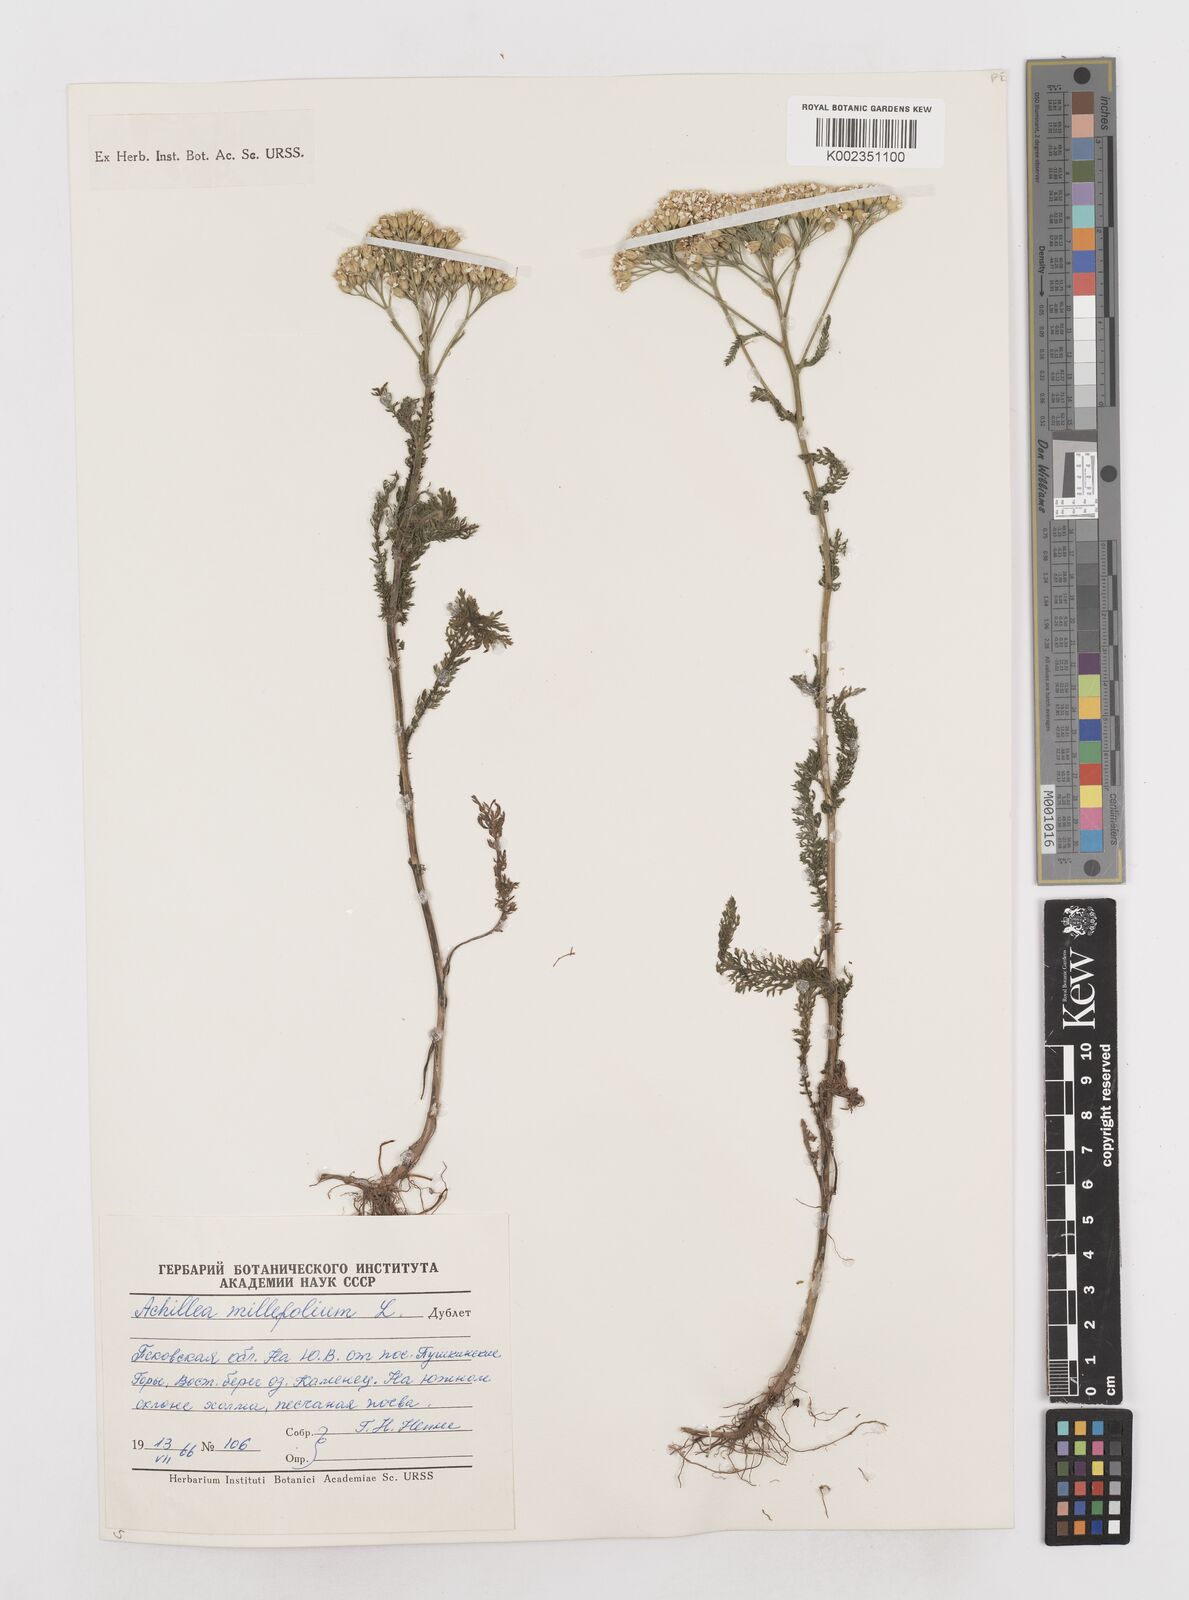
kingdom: Plantae
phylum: Tracheophyta
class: Magnoliopsida
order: Asterales
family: Asteraceae
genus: Achillea
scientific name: Achillea millefolium
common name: Yarrow
